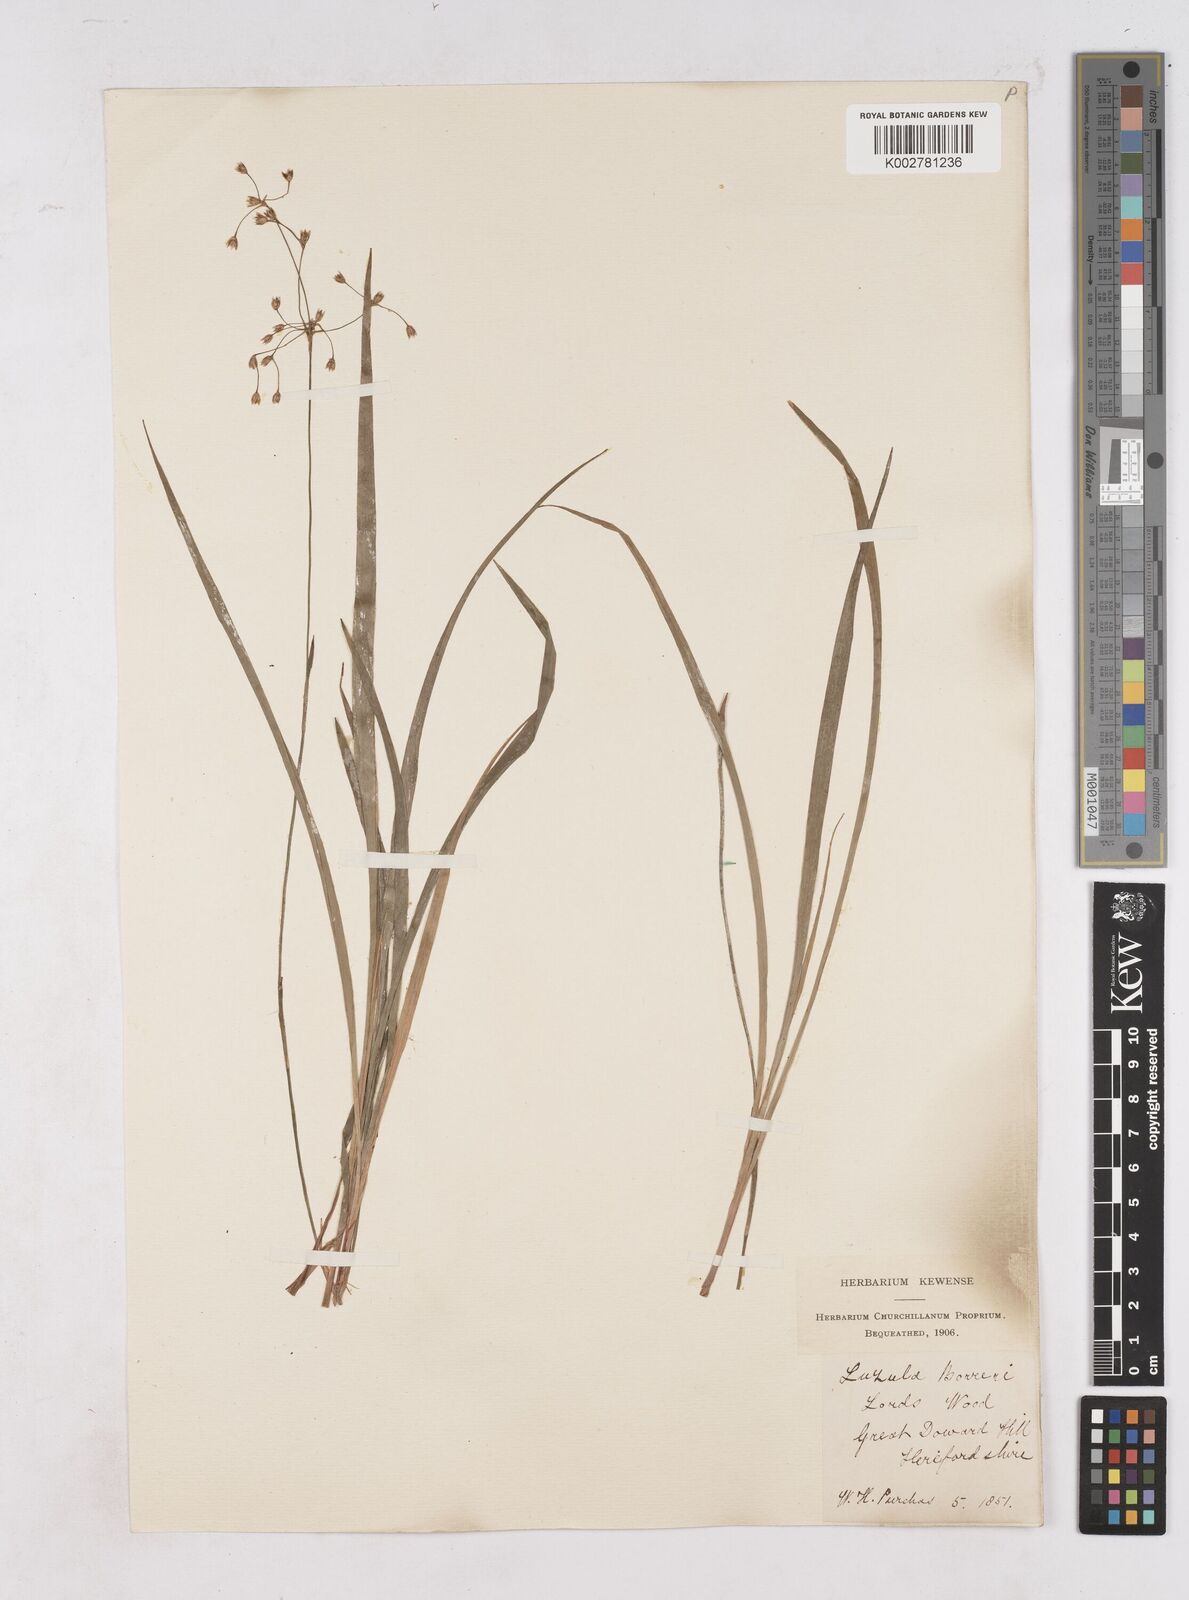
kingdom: Plantae
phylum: Tracheophyta
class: Liliopsida
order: Poales
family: Juncaceae
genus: Luzula
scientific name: Luzula forsteri
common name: Southern wood-rush
